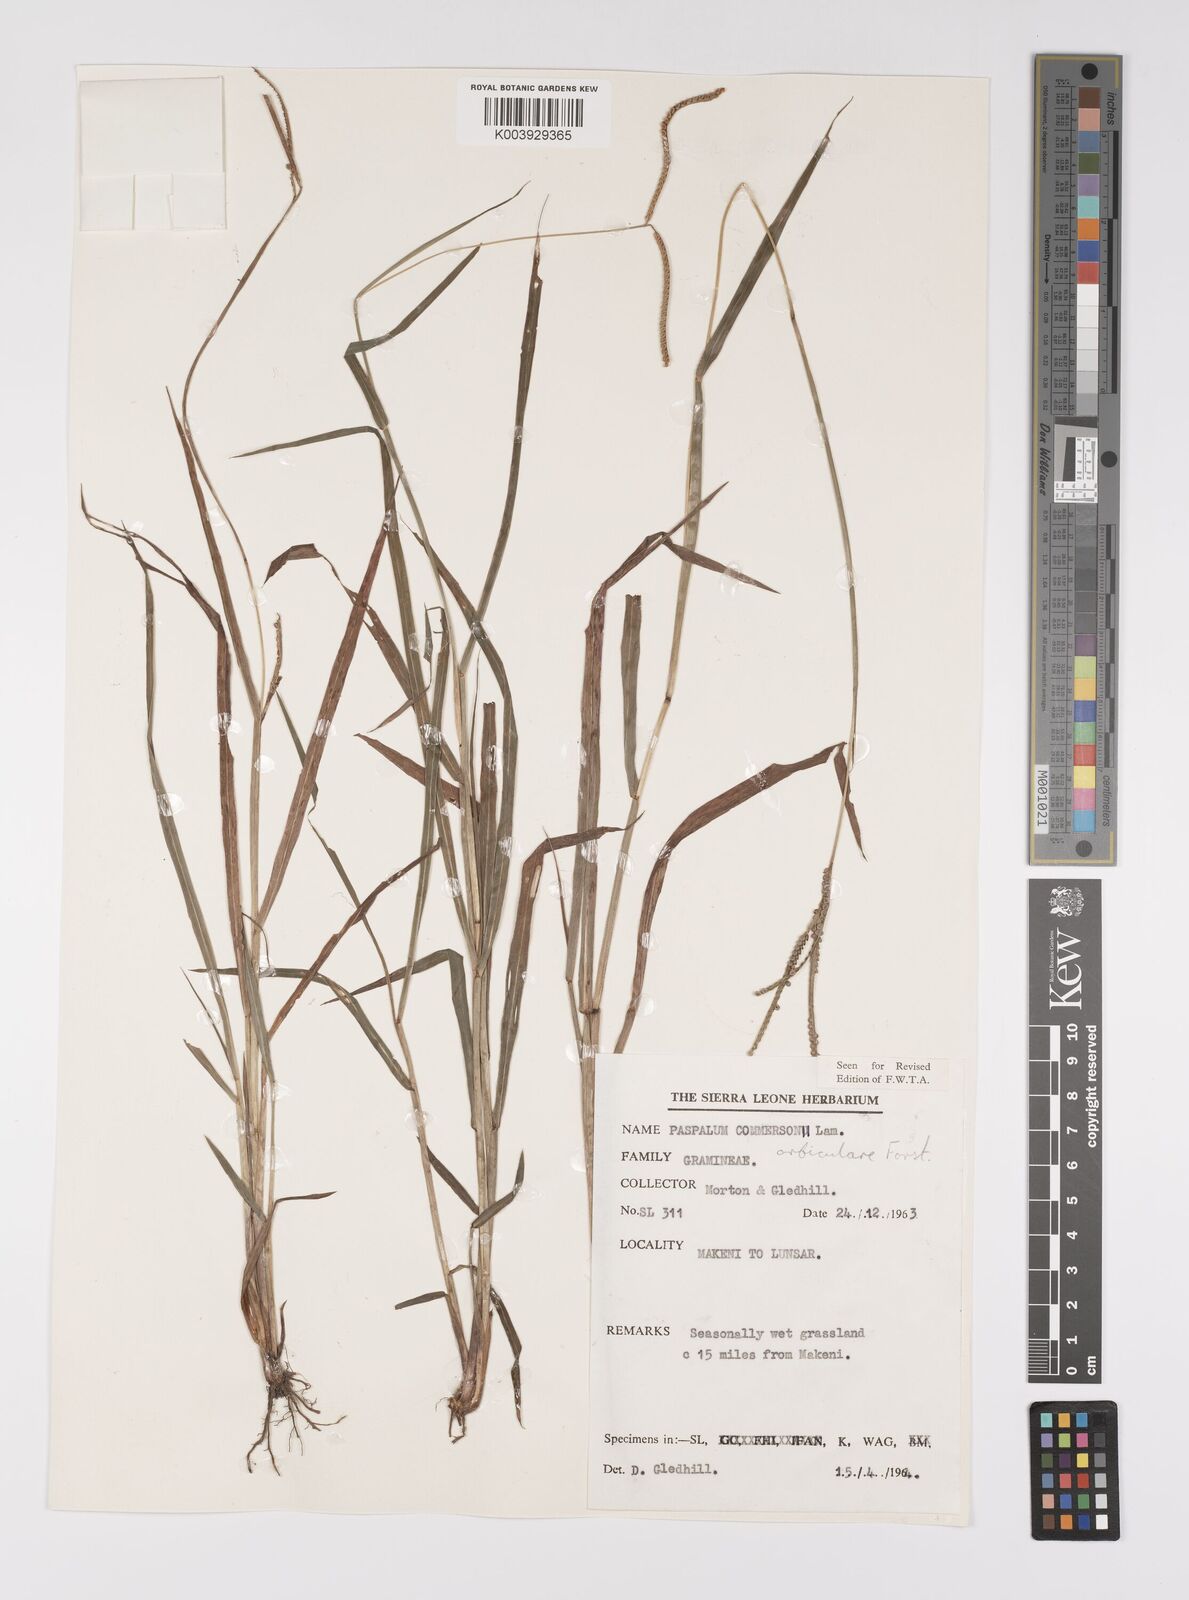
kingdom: Plantae
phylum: Tracheophyta
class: Liliopsida
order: Poales
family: Poaceae
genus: Paspalum
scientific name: Paspalum scrobiculatum
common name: Kodo millet
